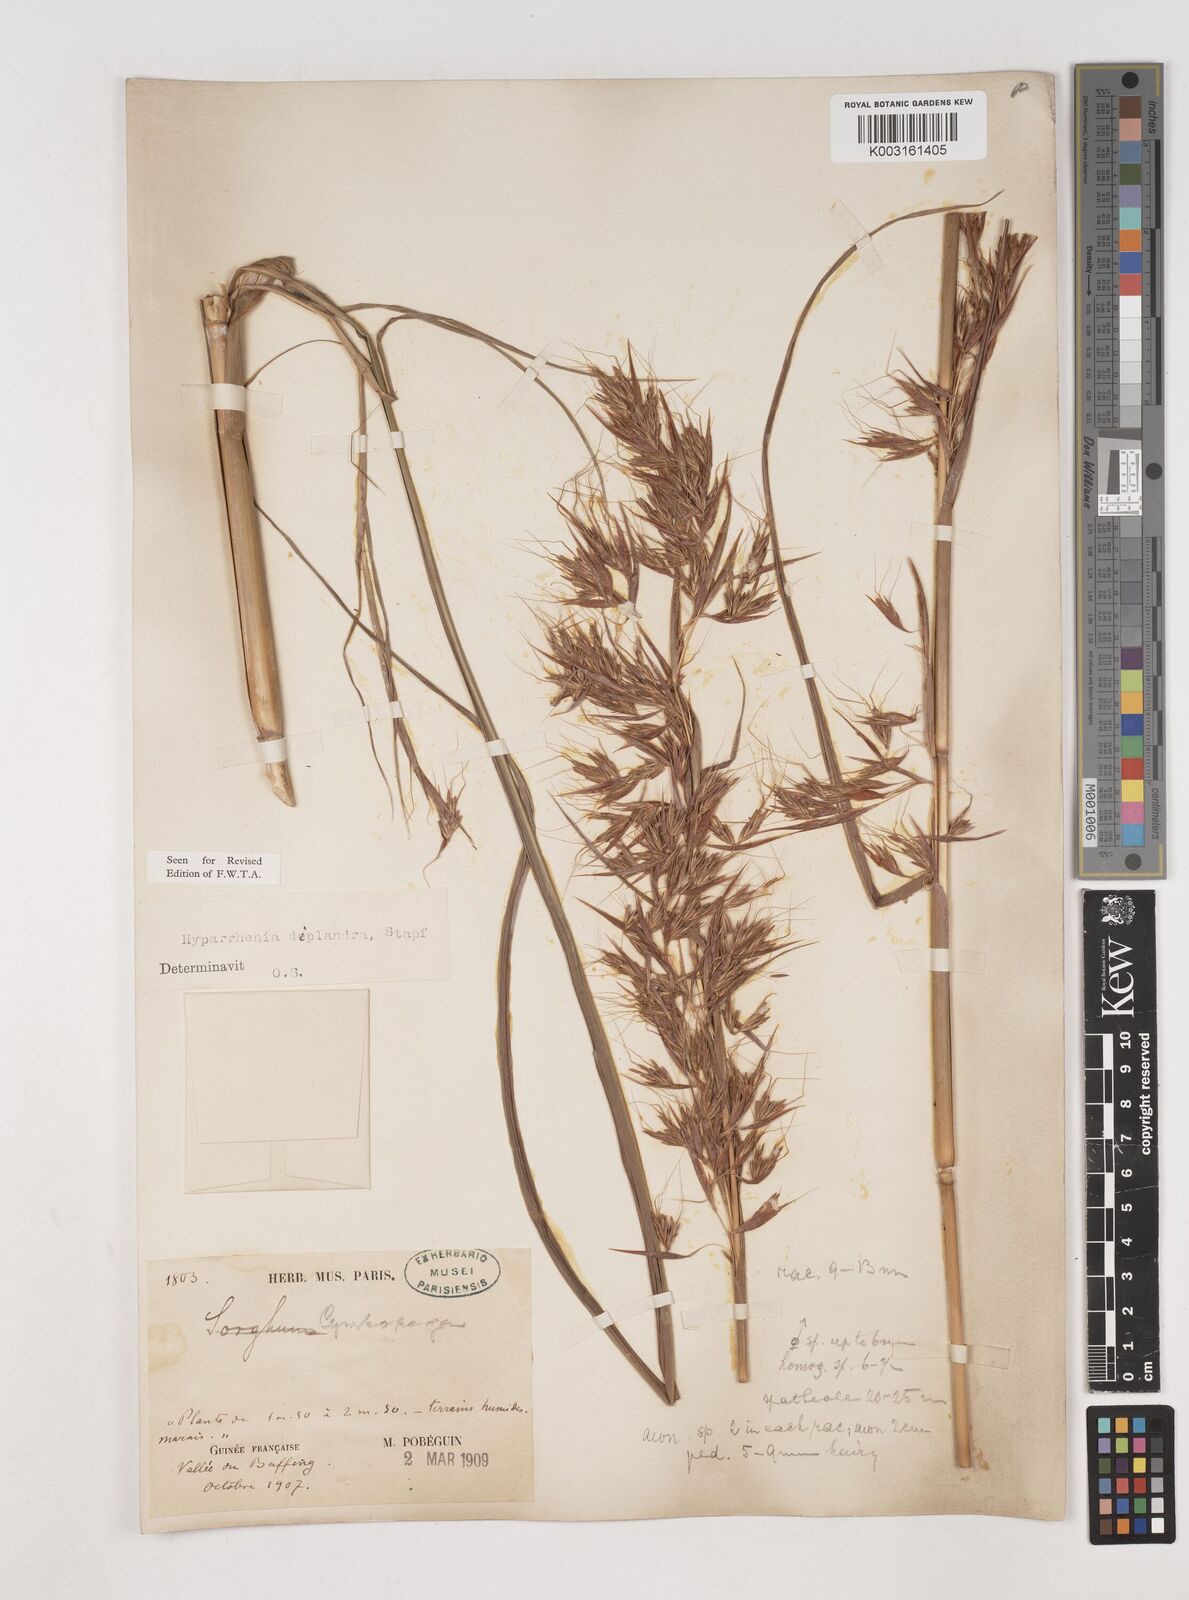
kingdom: Plantae
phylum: Tracheophyta
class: Liliopsida
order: Poales
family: Poaceae
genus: Hyparrhenia
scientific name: Hyparrhenia diplandra
